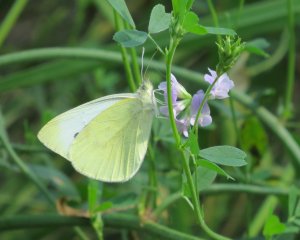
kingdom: Animalia
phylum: Arthropoda
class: Insecta
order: Lepidoptera
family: Pieridae
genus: Pieris
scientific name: Pieris rapae
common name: Cabbage White
